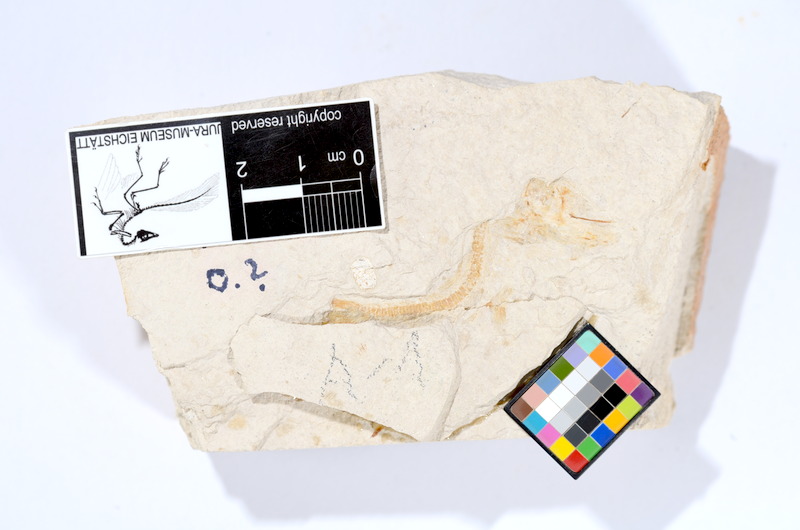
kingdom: Animalia
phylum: Chordata
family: Ascalaboidae
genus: Tharsis
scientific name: Tharsis dubius
